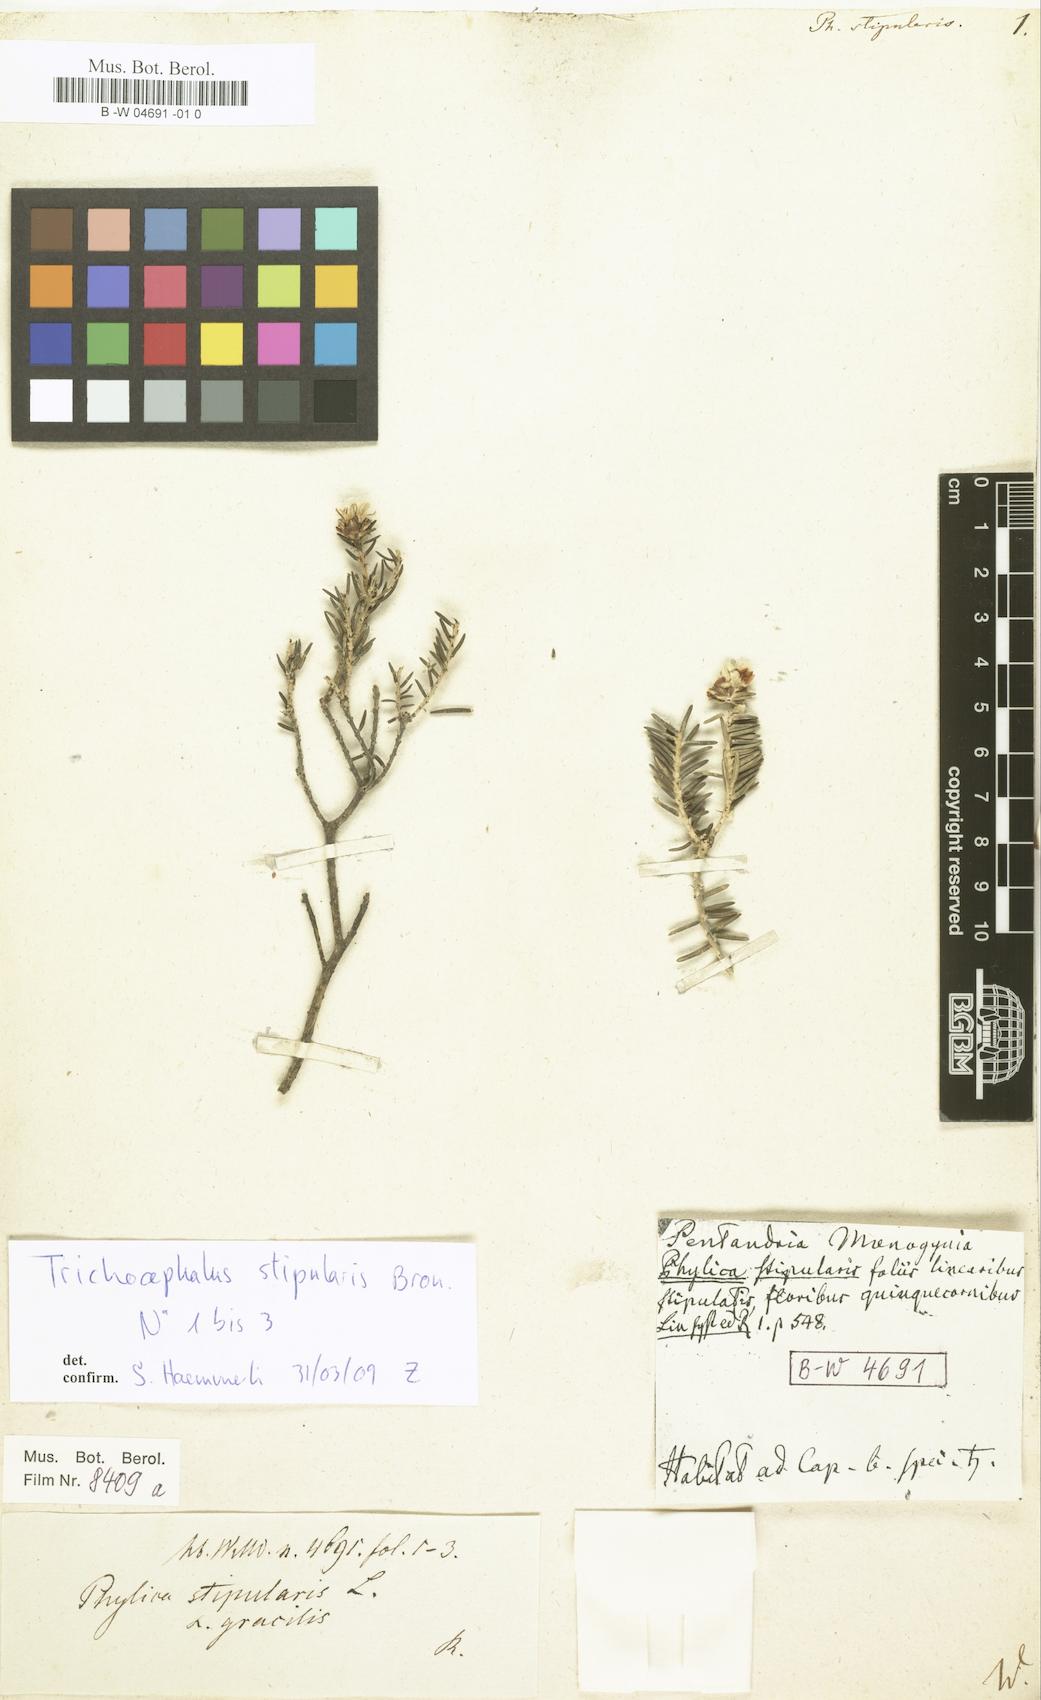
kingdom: Plantae
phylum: Tracheophyta
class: Magnoliopsida
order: Rosales
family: Rhamnaceae
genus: Trichocephalus
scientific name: Trichocephalus stipularis
